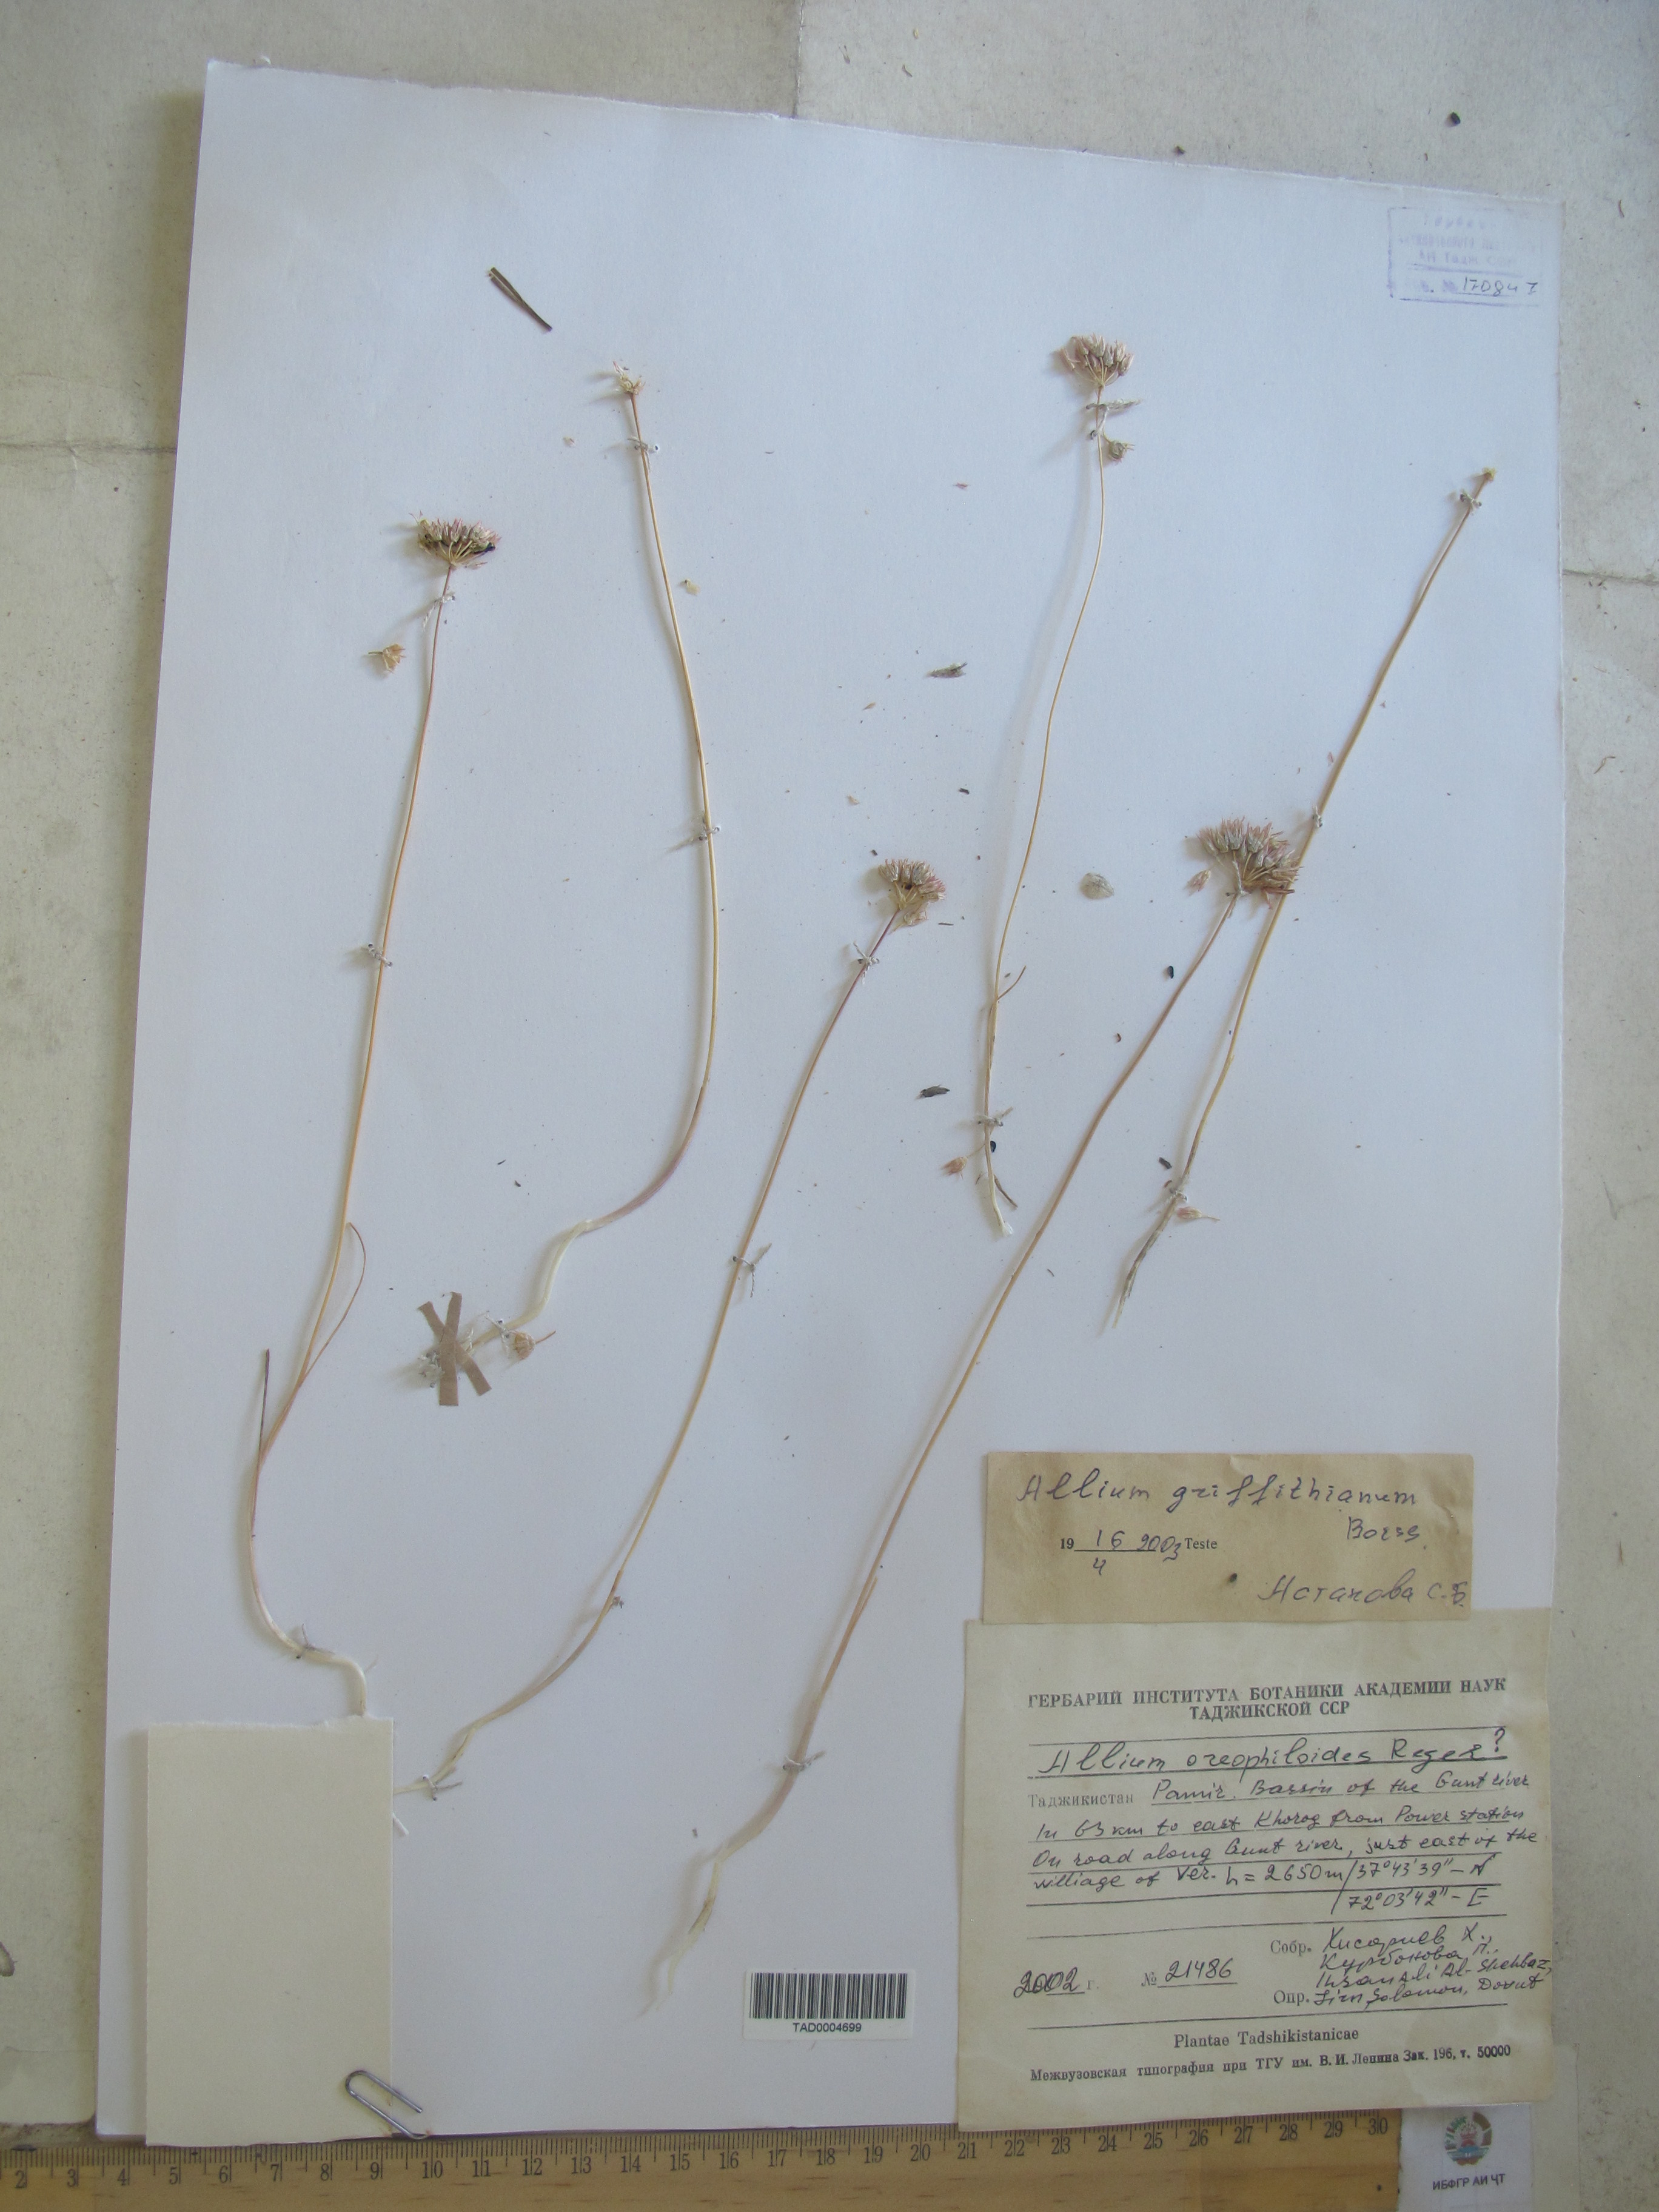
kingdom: Plantae
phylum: Tracheophyta
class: Liliopsida
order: Asparagales
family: Amaryllidaceae
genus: Allium
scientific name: Allium griffithianum
